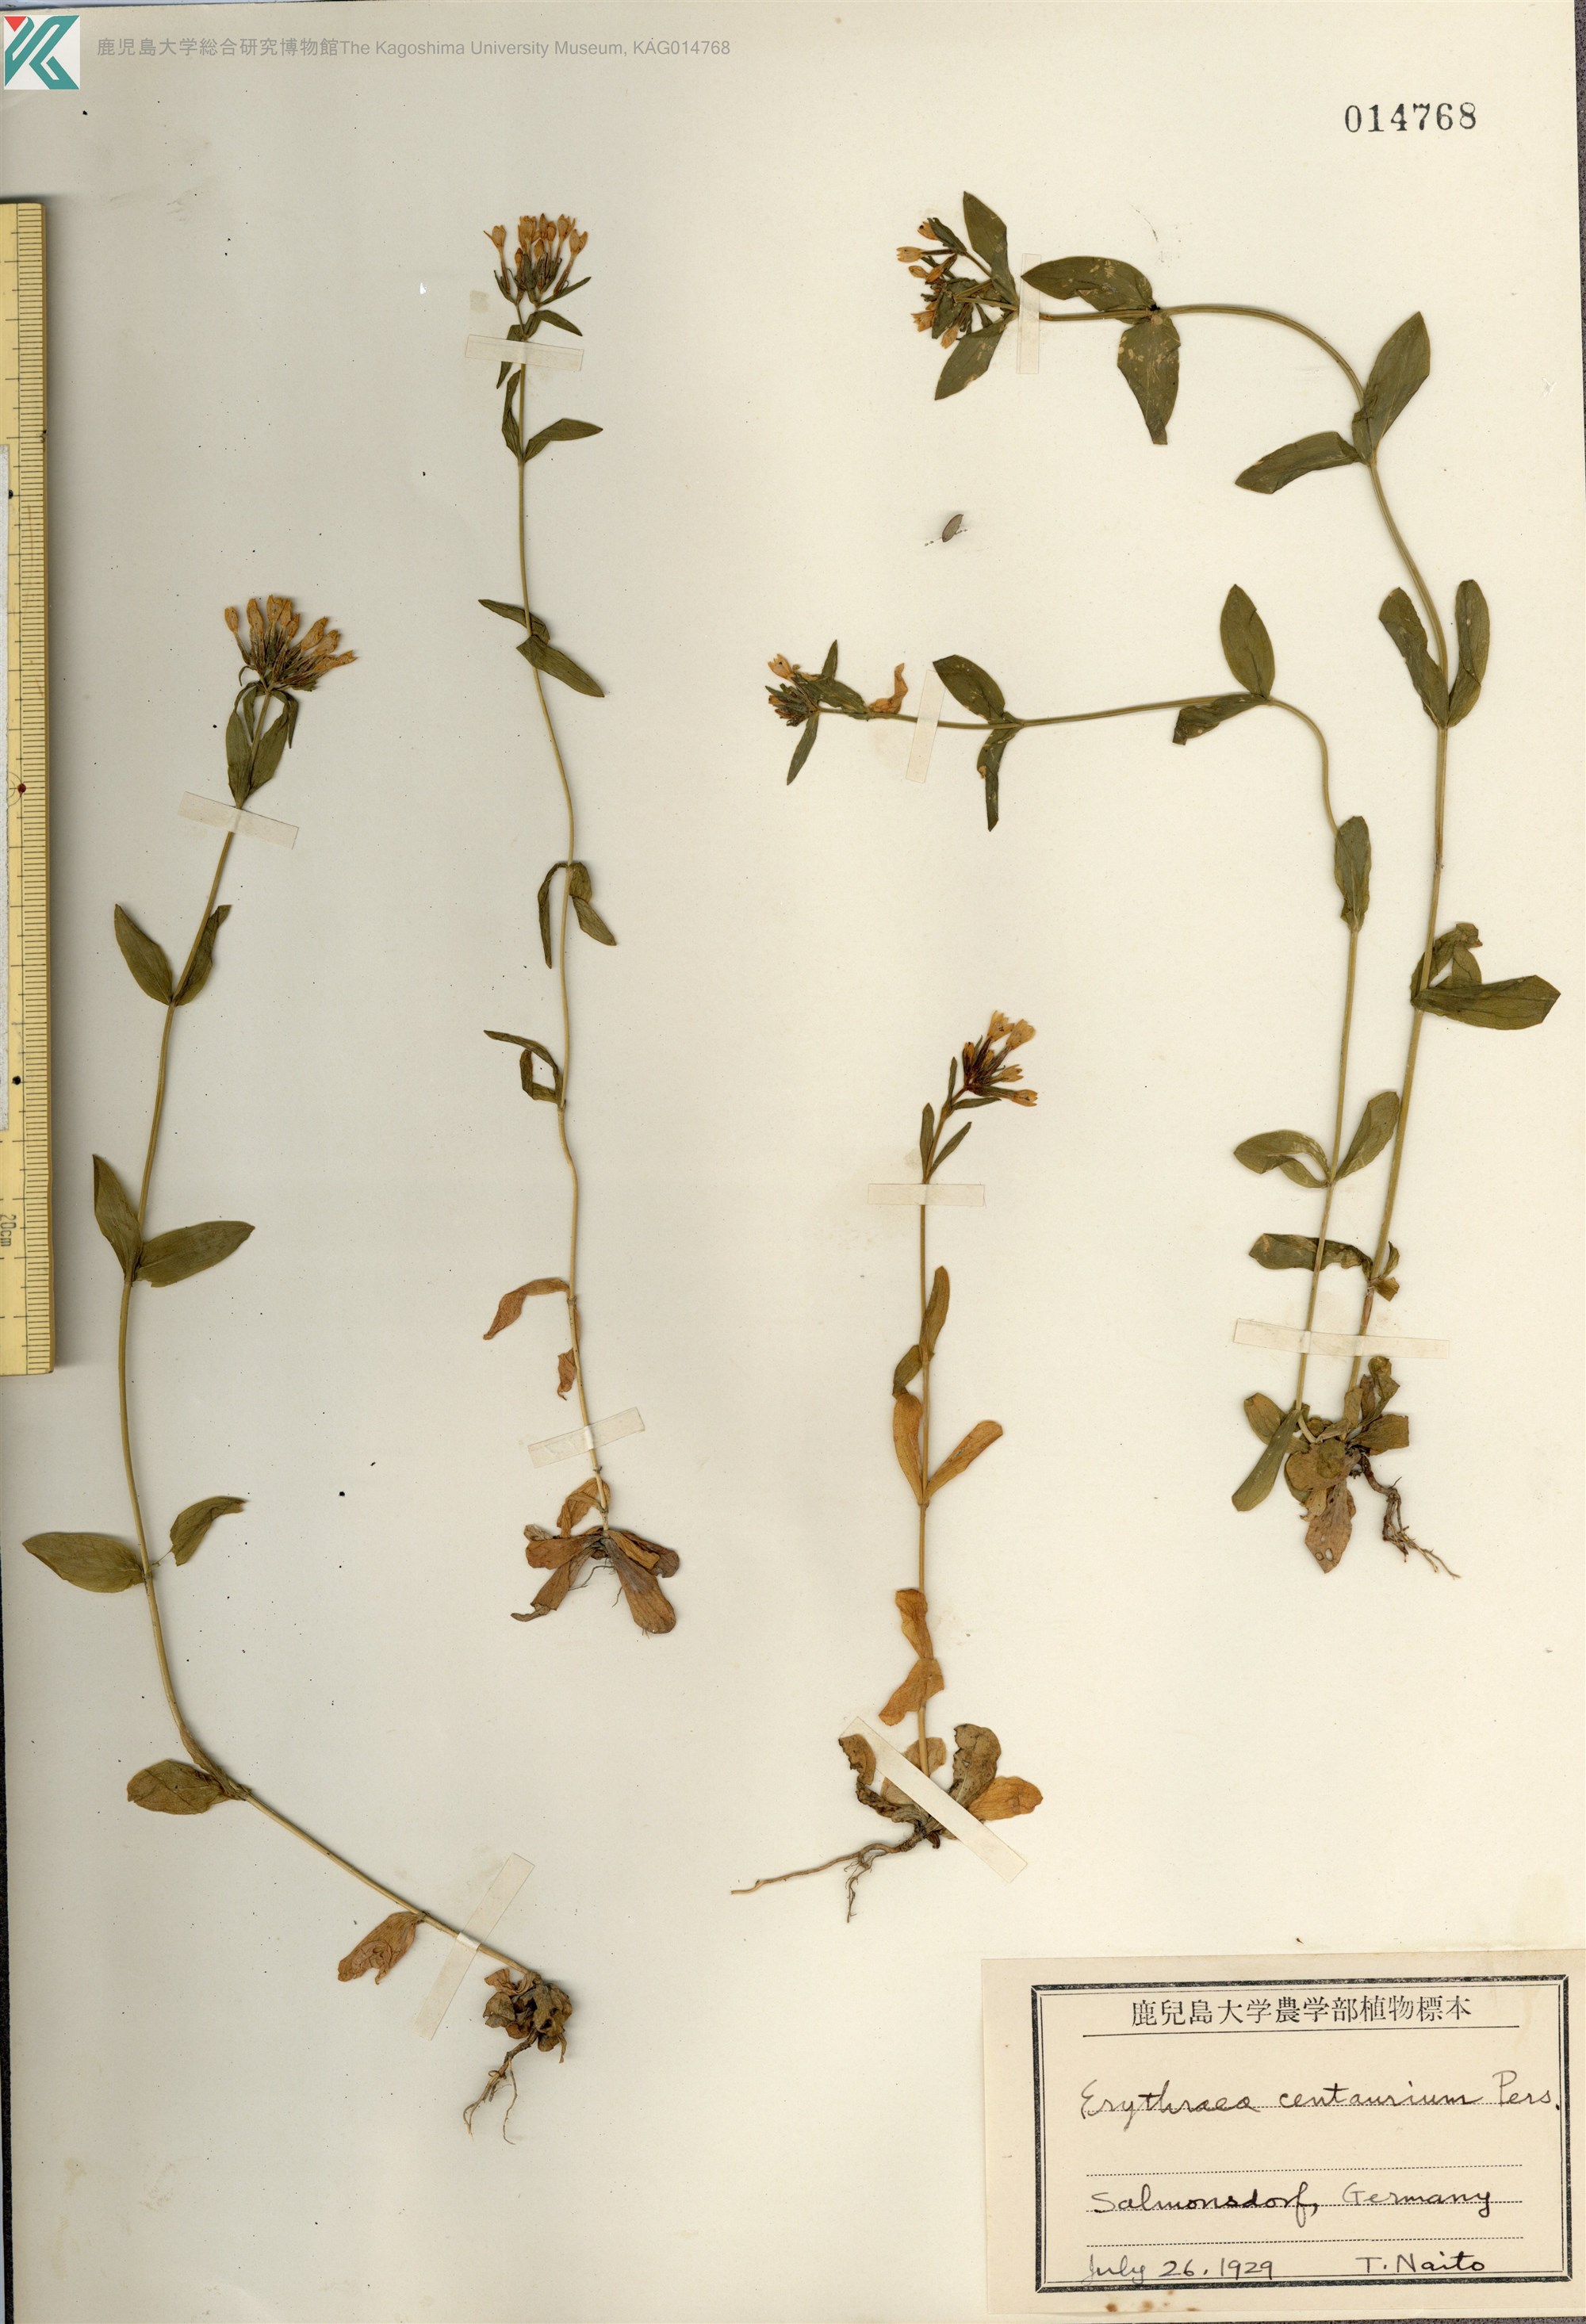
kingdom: Plantae
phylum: Tracheophyta
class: Magnoliopsida
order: Gentianales
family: Gentianaceae
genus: Centaurium
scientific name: Centaurium erythraea
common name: Common centaury
